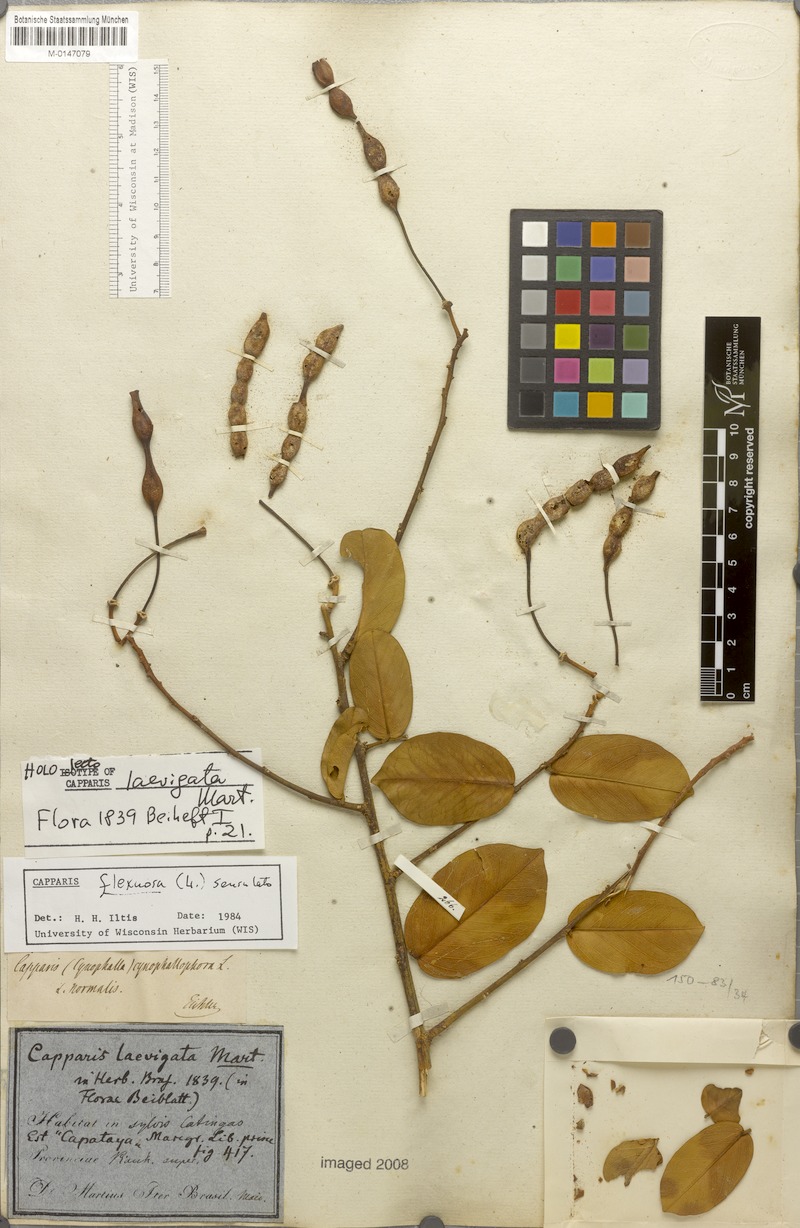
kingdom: Plantae
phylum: Tracheophyta
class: Magnoliopsida
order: Brassicales
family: Capparaceae
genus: Cynophalla
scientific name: Cynophalla flexuosa
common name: Capertree
